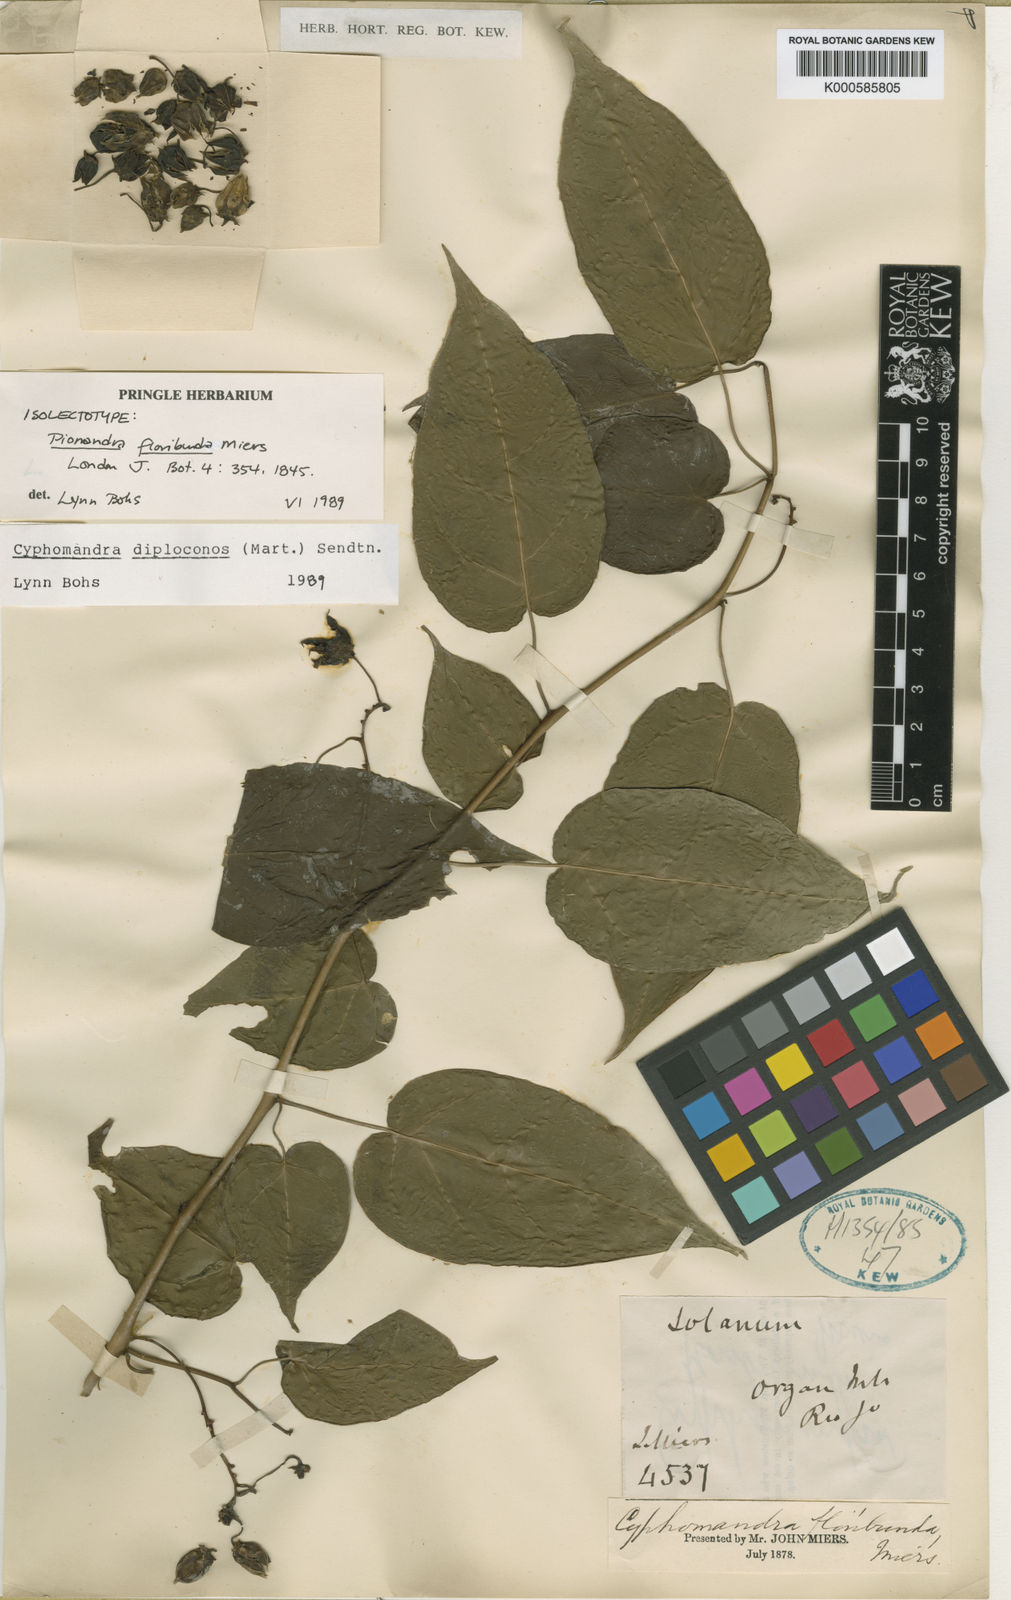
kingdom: Plantae
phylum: Tracheophyta
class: Magnoliopsida
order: Solanales
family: Solanaceae
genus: Solanum
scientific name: Solanum diploconos
